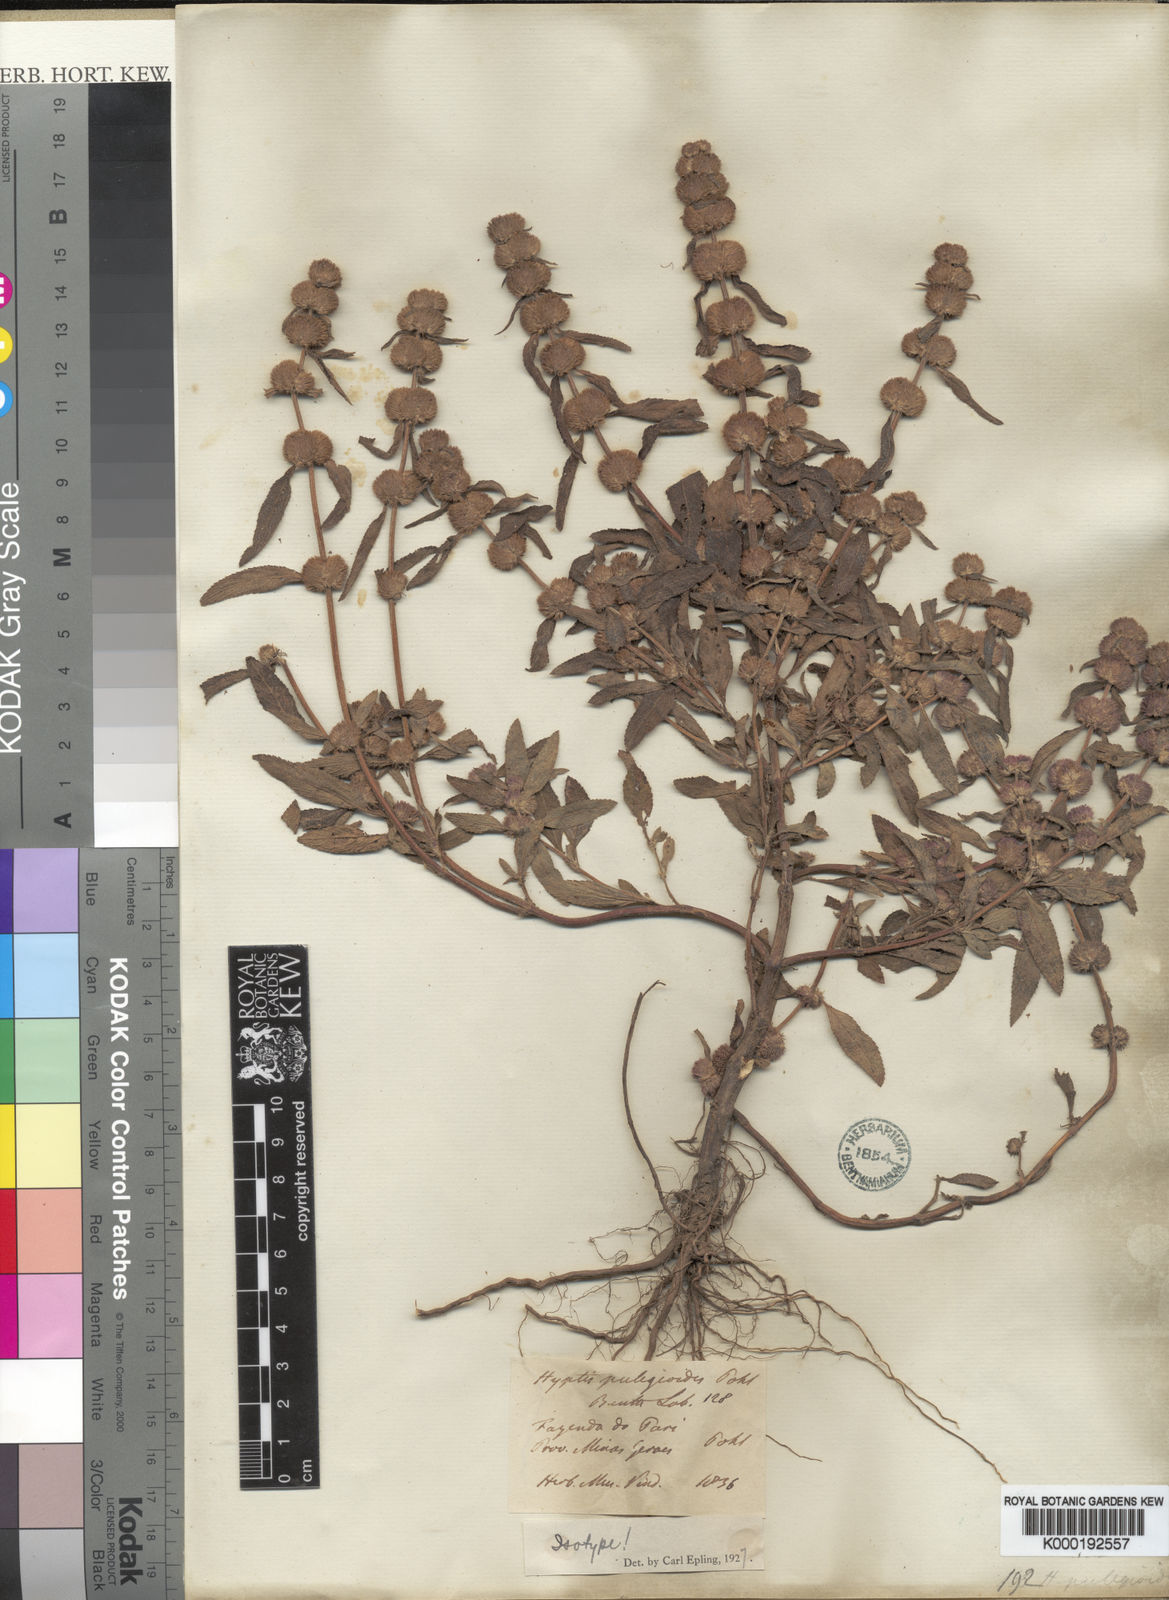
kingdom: Plantae
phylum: Tracheophyta
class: Magnoliopsida
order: Lamiales
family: Lamiaceae
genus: Hyptis
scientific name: Hyptis pulegioides
